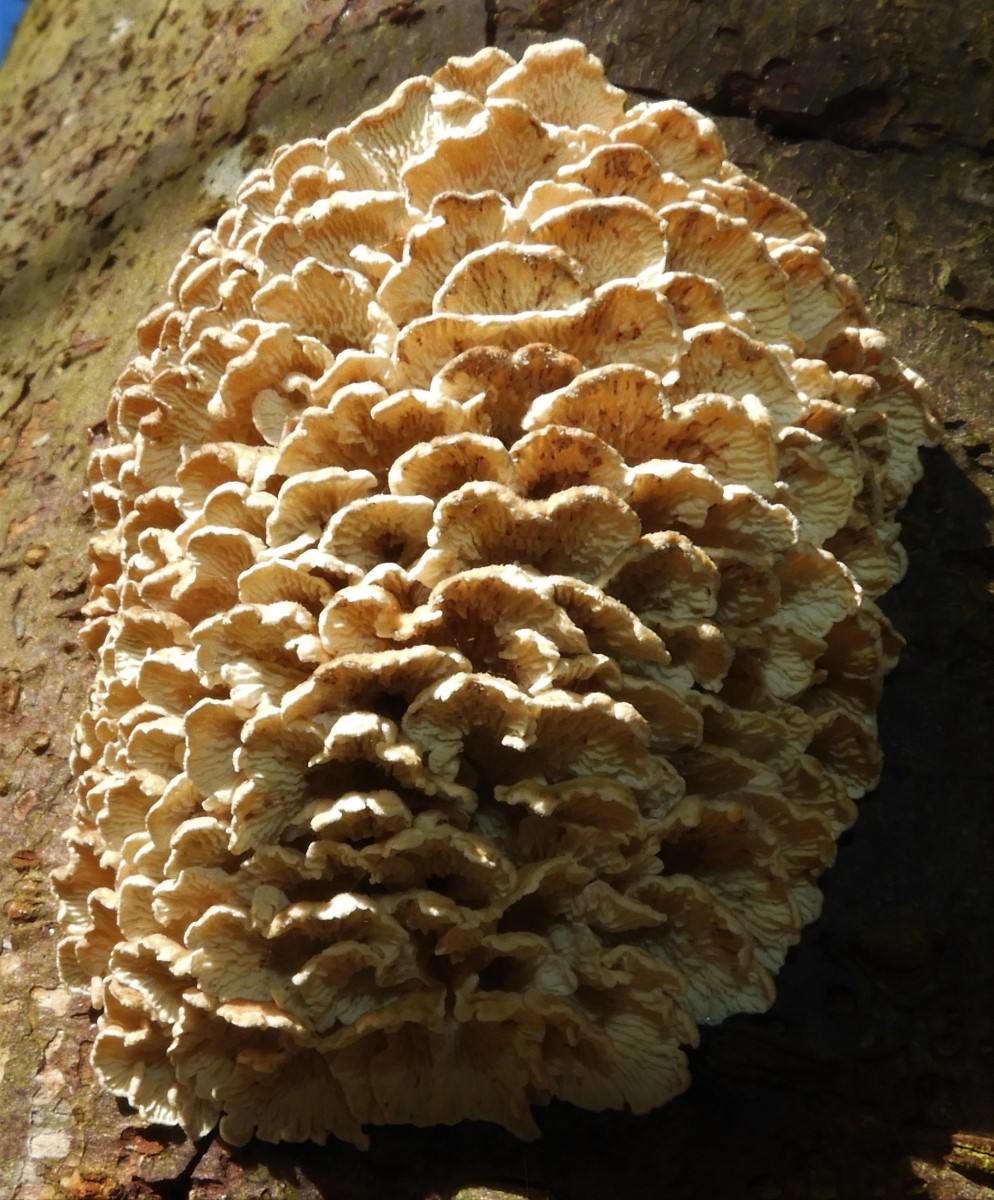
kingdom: Fungi
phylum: Basidiomycota
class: Agaricomycetes
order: Amylocorticiales
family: Amylocorticiaceae
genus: Plicaturopsis
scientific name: Plicaturopsis crispa
